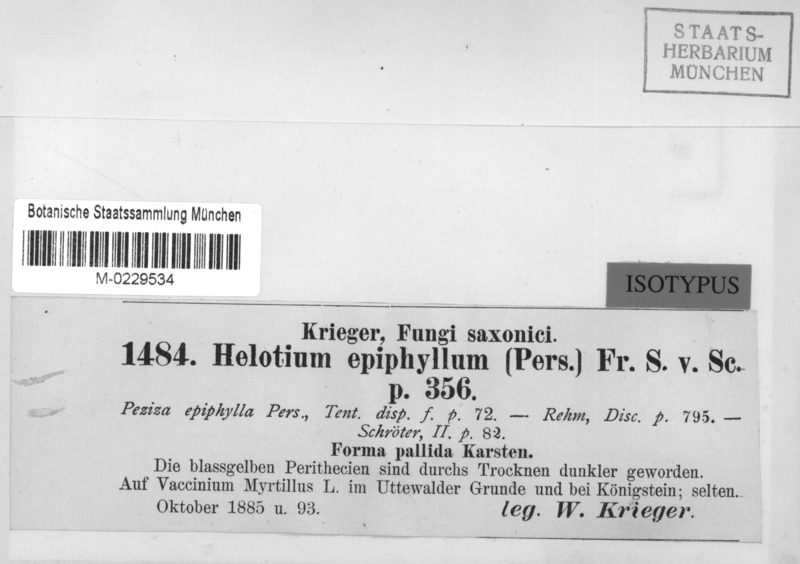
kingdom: Fungi
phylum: Ascomycota
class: Leotiomycetes
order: Helotiales
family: Helotiaceae
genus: Hymenoscyphus
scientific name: Hymenoscyphus epiphyllus
